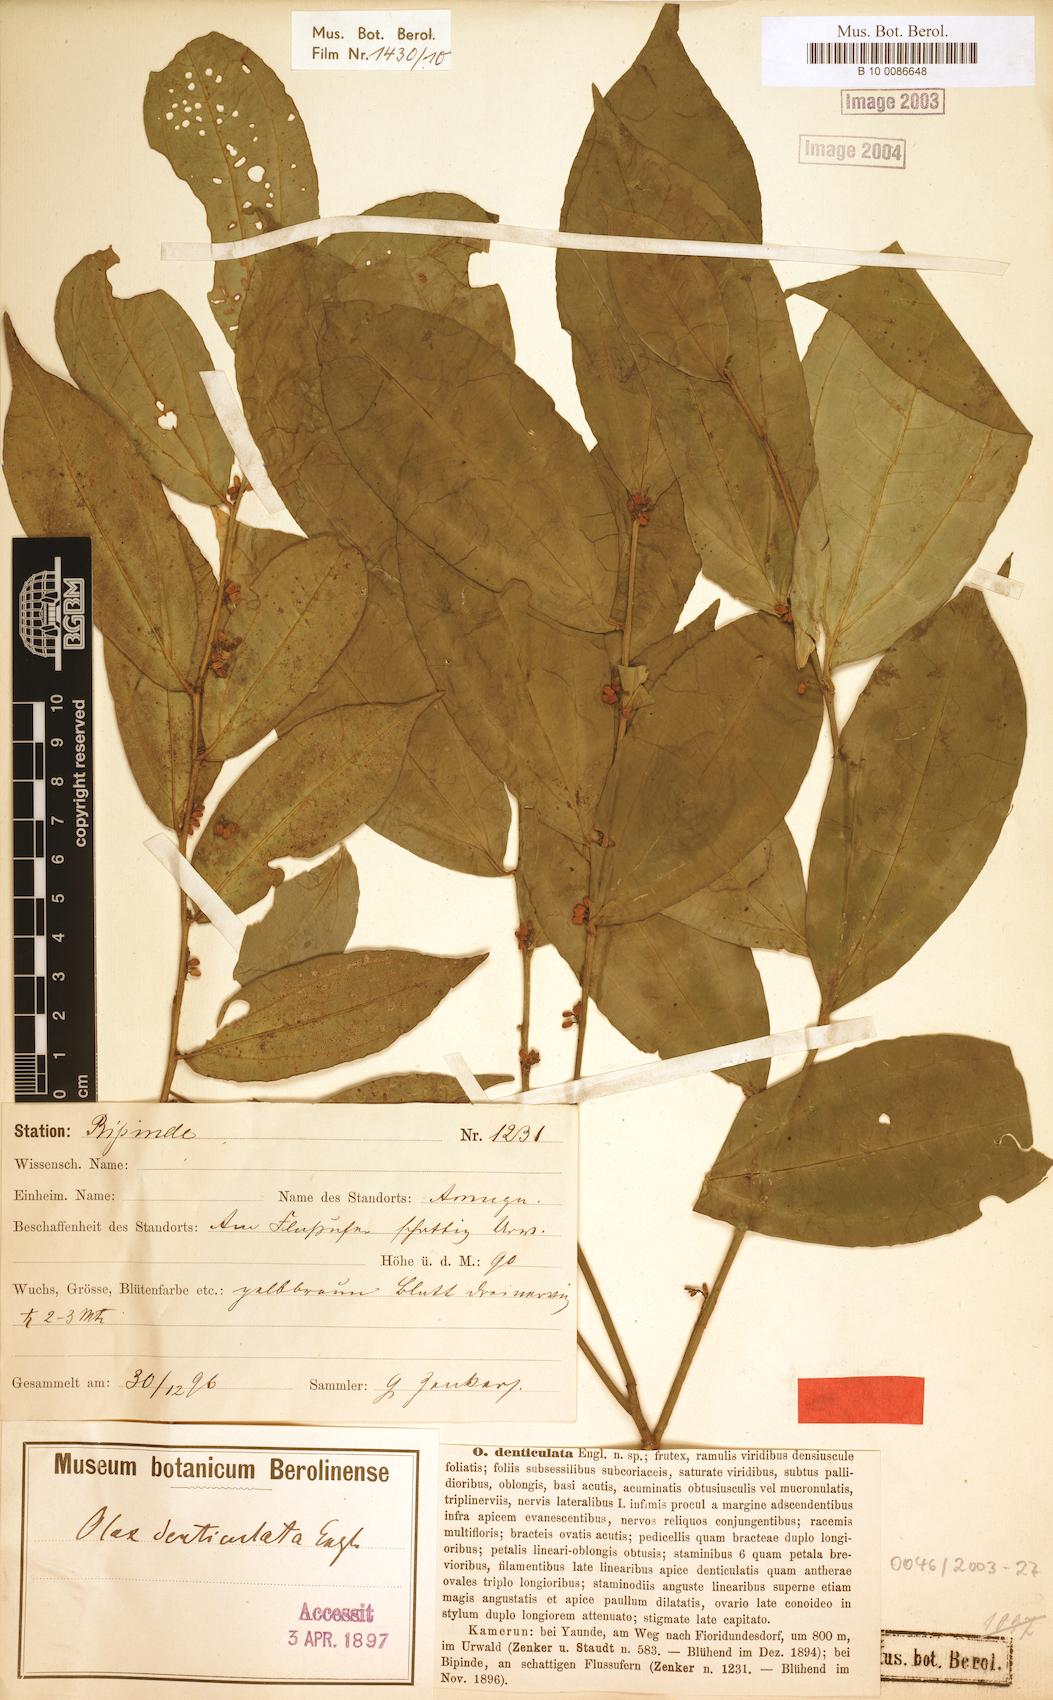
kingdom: Plantae
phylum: Tracheophyta
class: Magnoliopsida
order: Santalales
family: Olacaceae
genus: Olax
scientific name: Olax triplinervia
